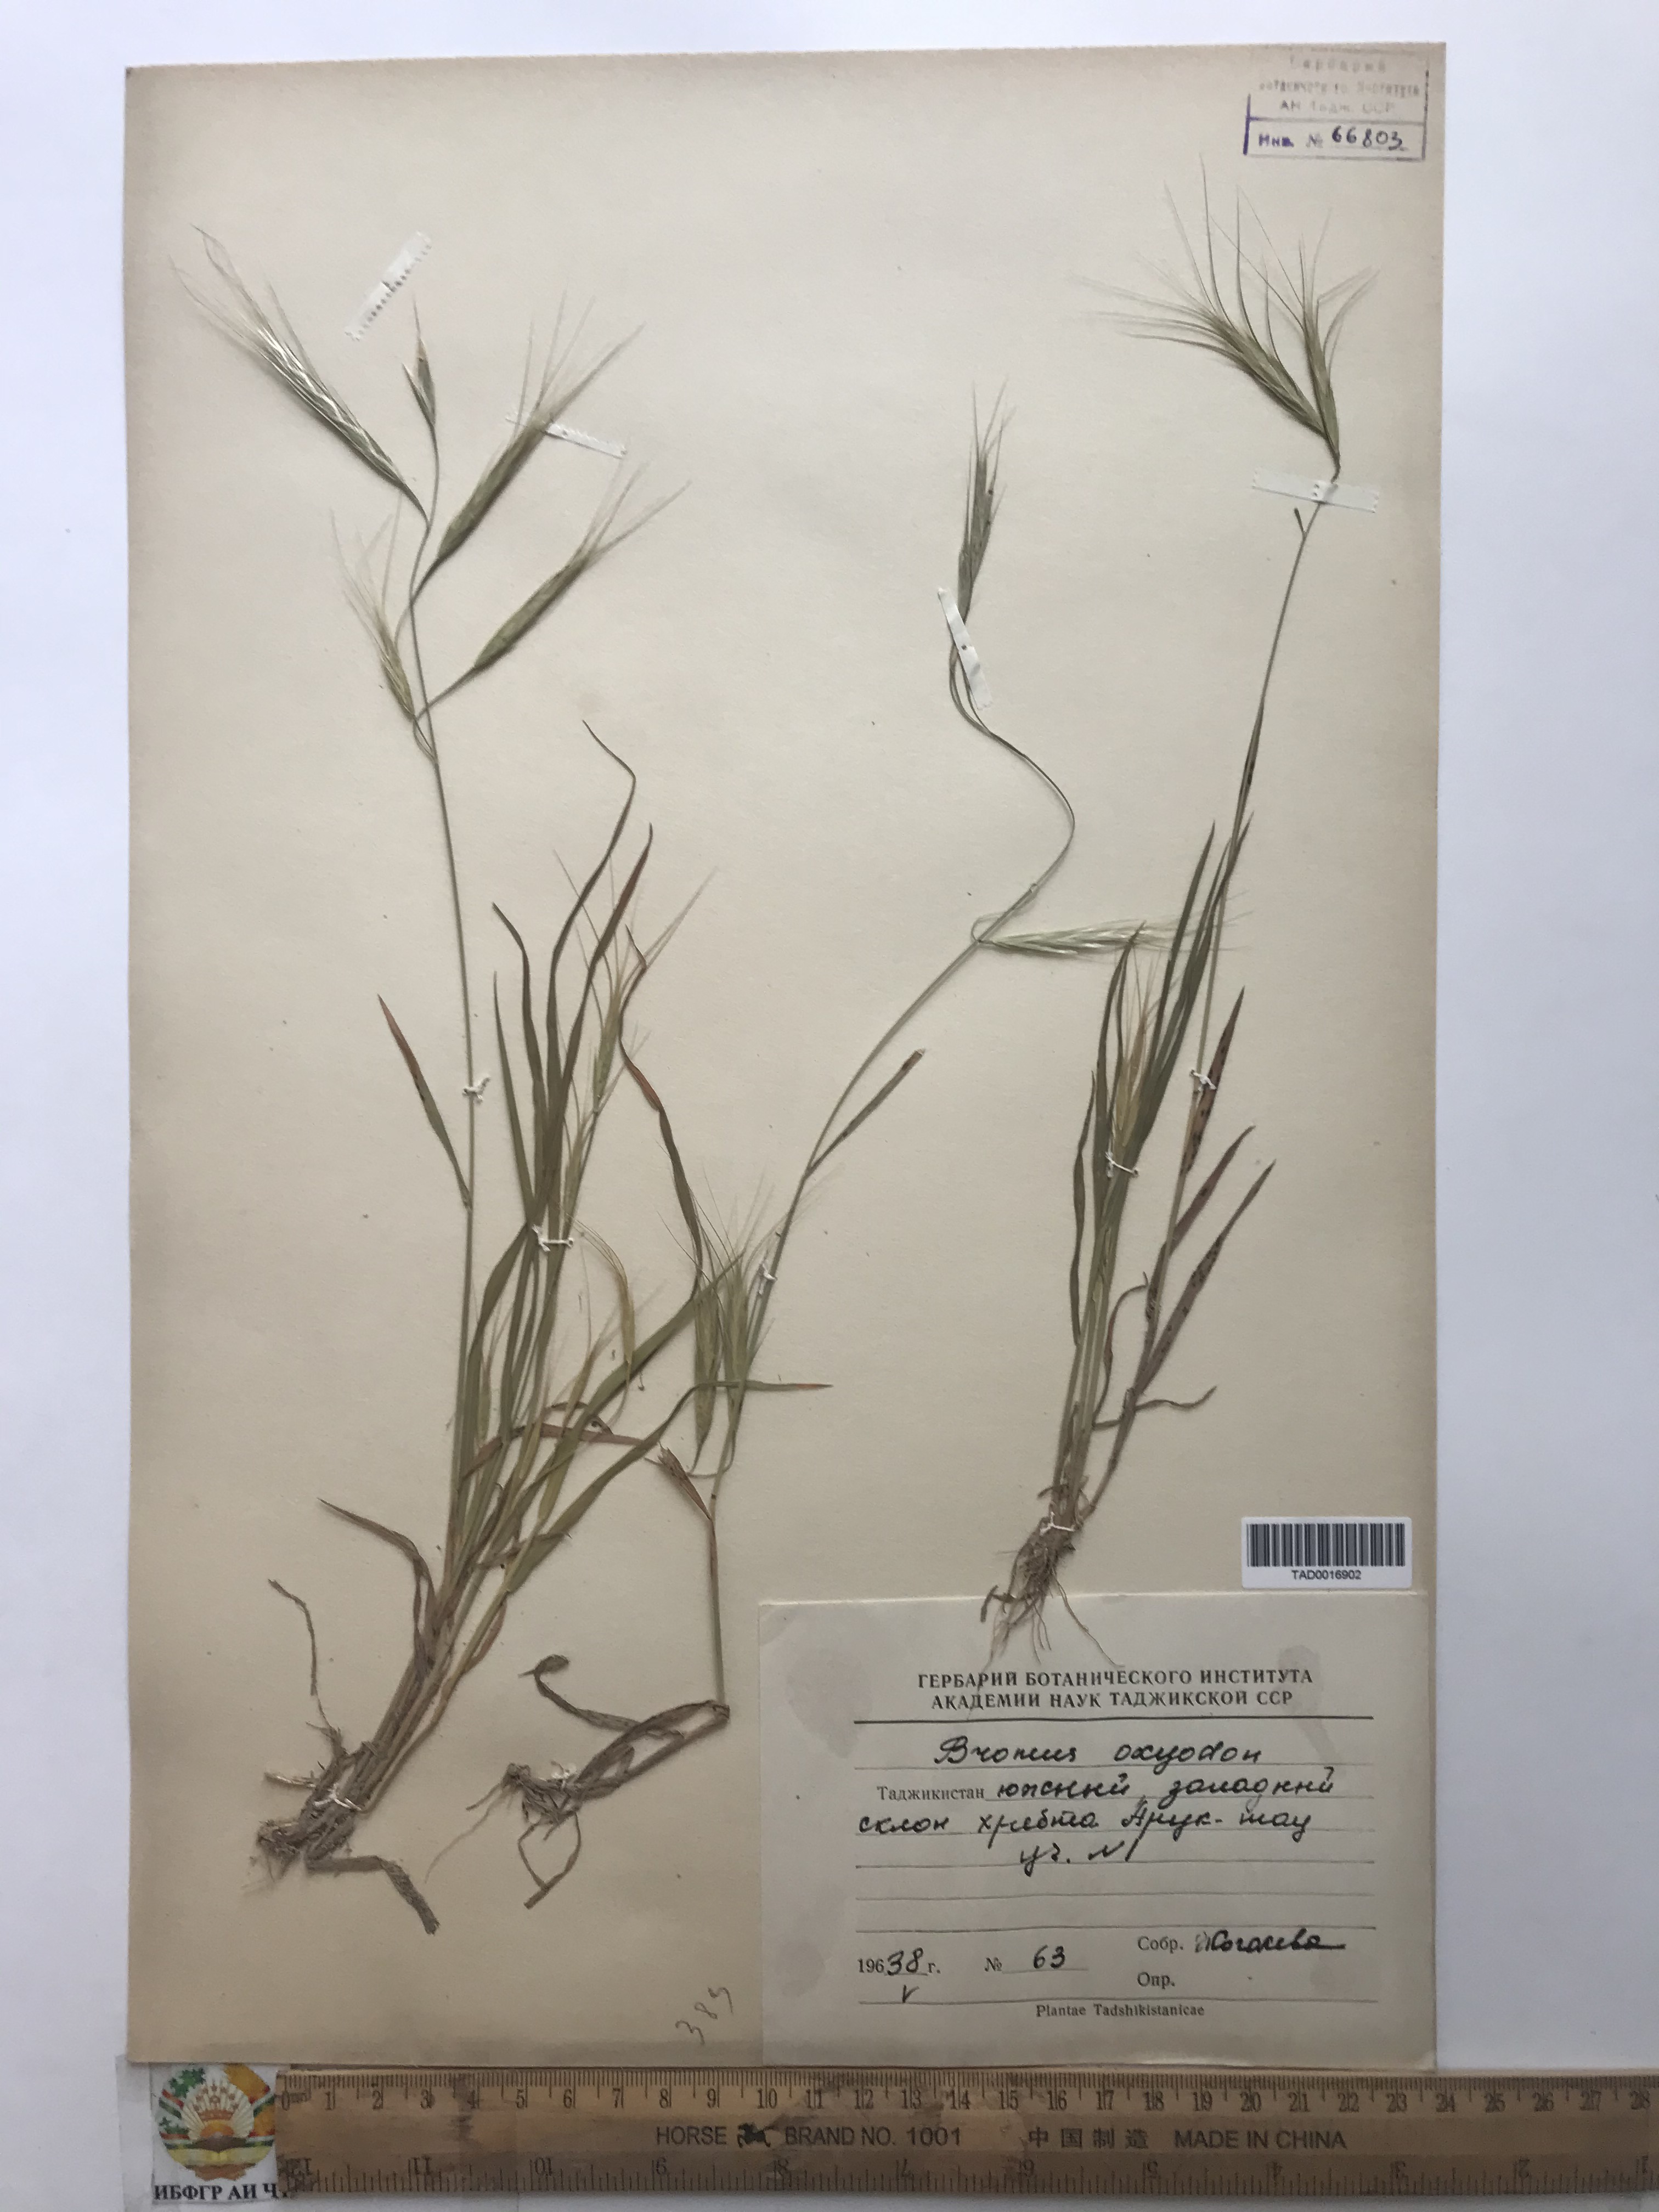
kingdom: Plantae
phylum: Tracheophyta
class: Liliopsida
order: Poales
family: Poaceae
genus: Bromus
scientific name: Bromus oxyodon
